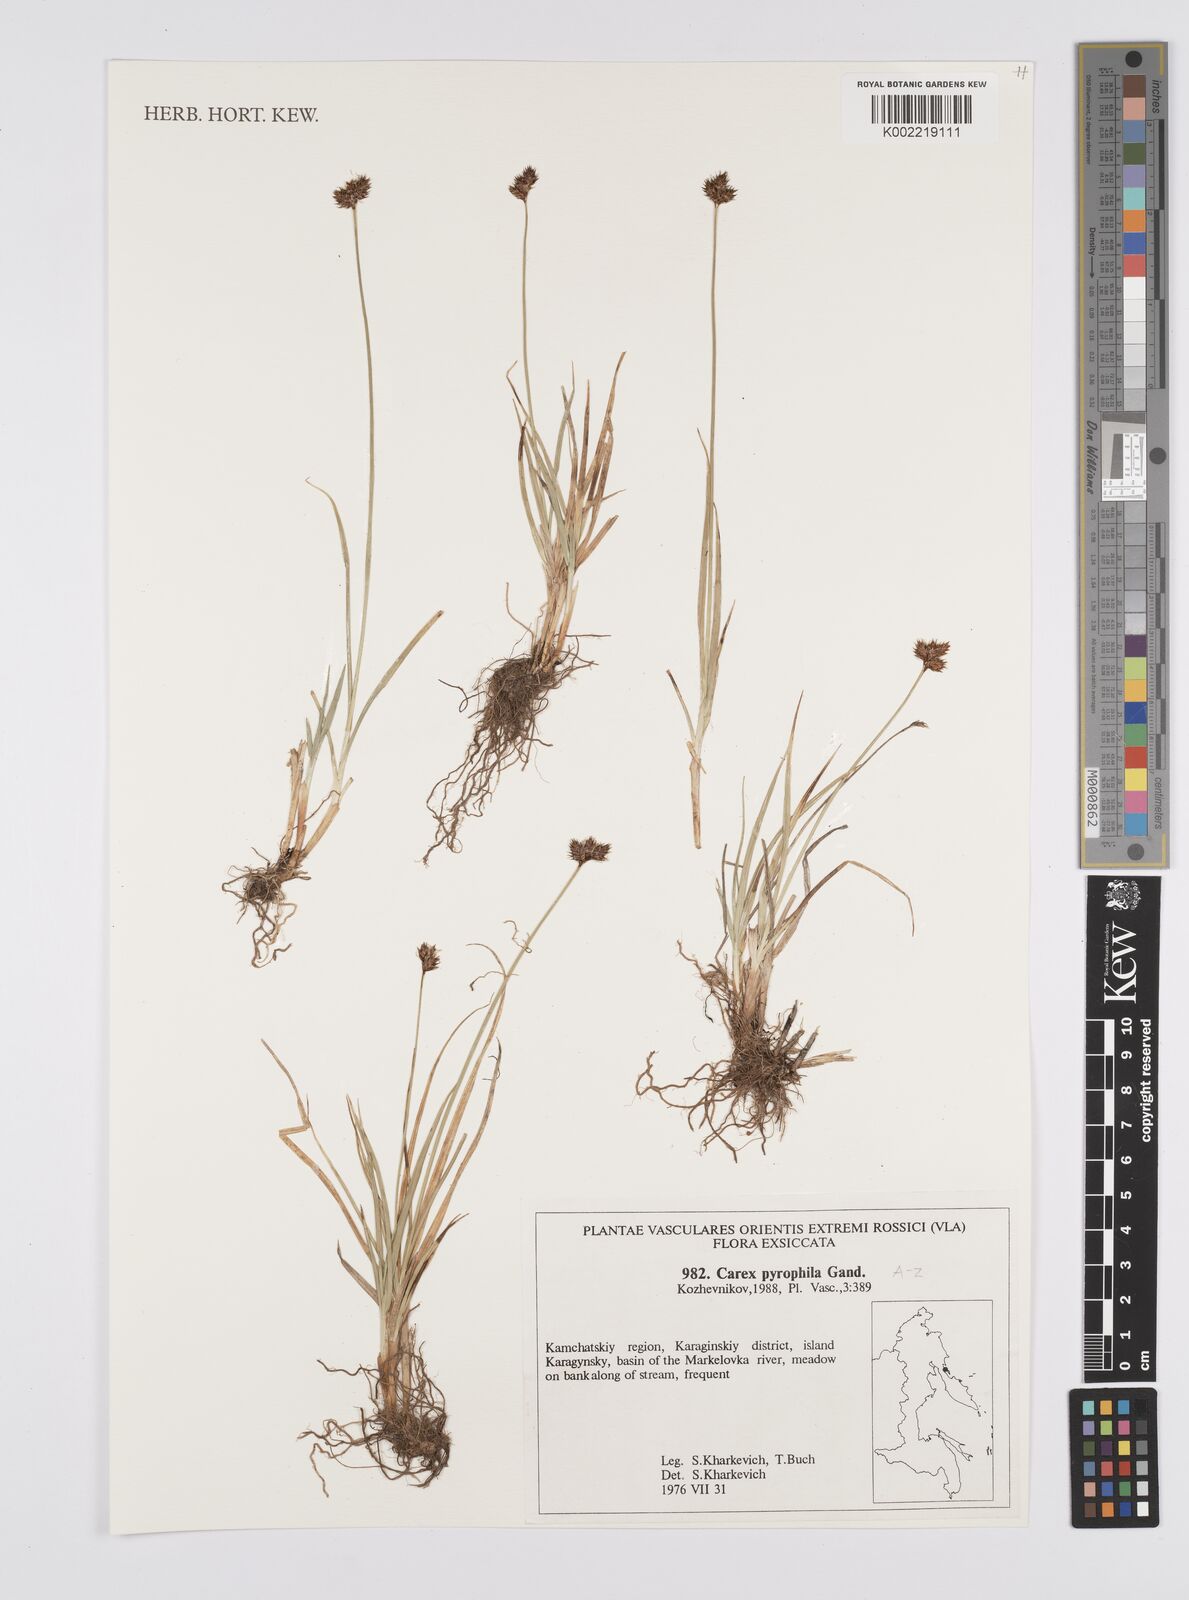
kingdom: Plantae
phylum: Tracheophyta
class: Liliopsida
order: Poales
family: Cyperaceae
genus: Carex
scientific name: Carex macloviana
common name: Falkland island sedge
